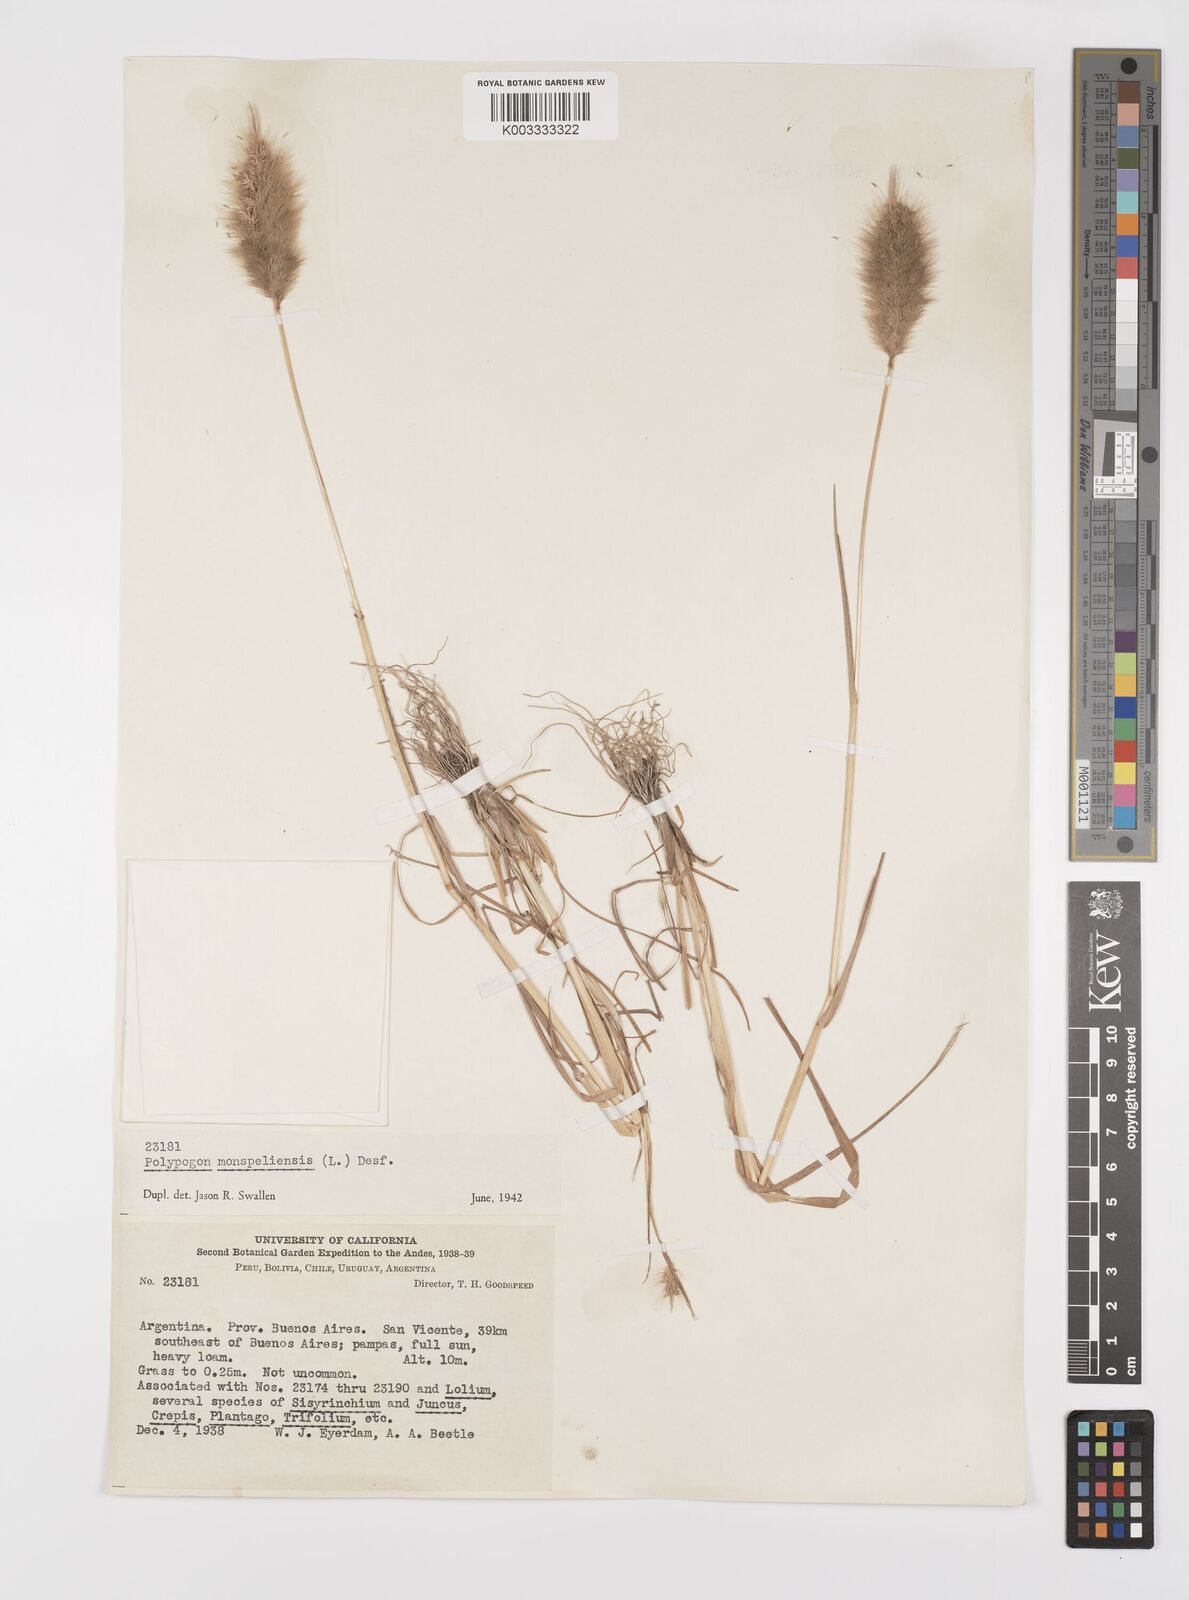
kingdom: Plantae
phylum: Tracheophyta
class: Liliopsida
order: Poales
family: Poaceae
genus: Polypogon
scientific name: Polypogon monspeliensis
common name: Annual rabbitsfoot grass
